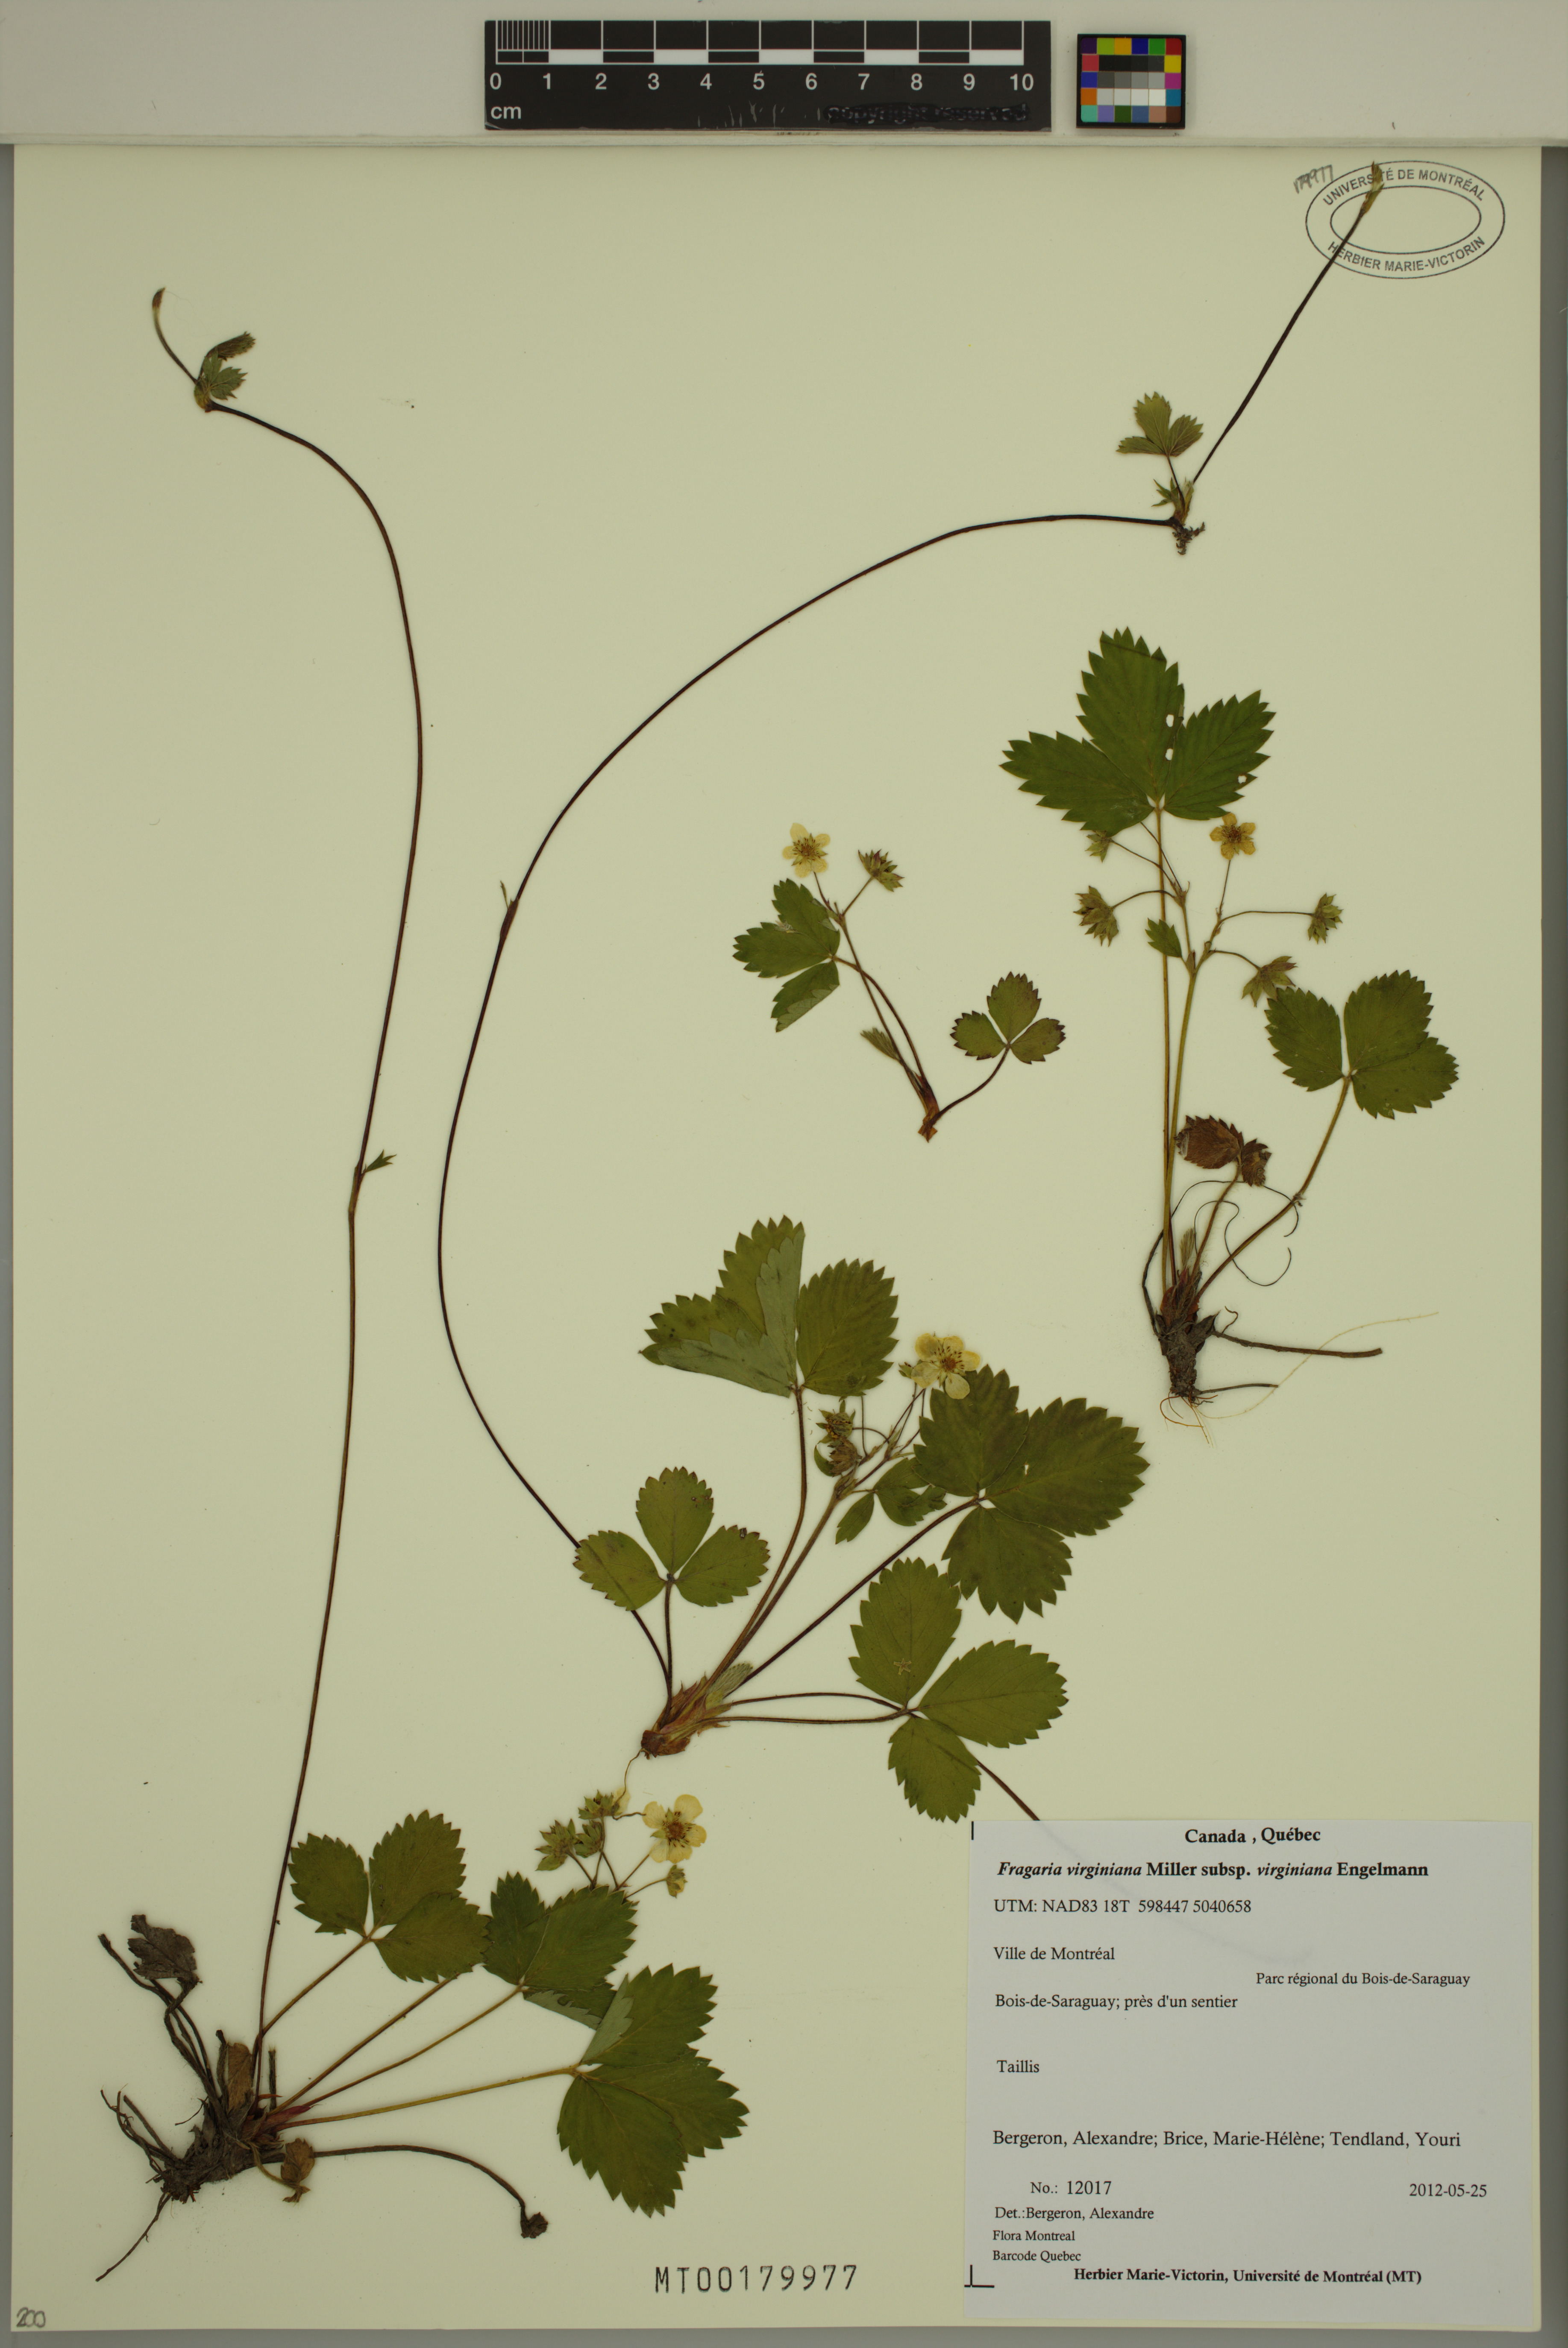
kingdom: Plantae
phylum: Tracheophyta
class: Magnoliopsida
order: Rosales
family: Rosaceae
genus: Fragaria
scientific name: Fragaria virginiana
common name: Thickleaved wild strawberry
